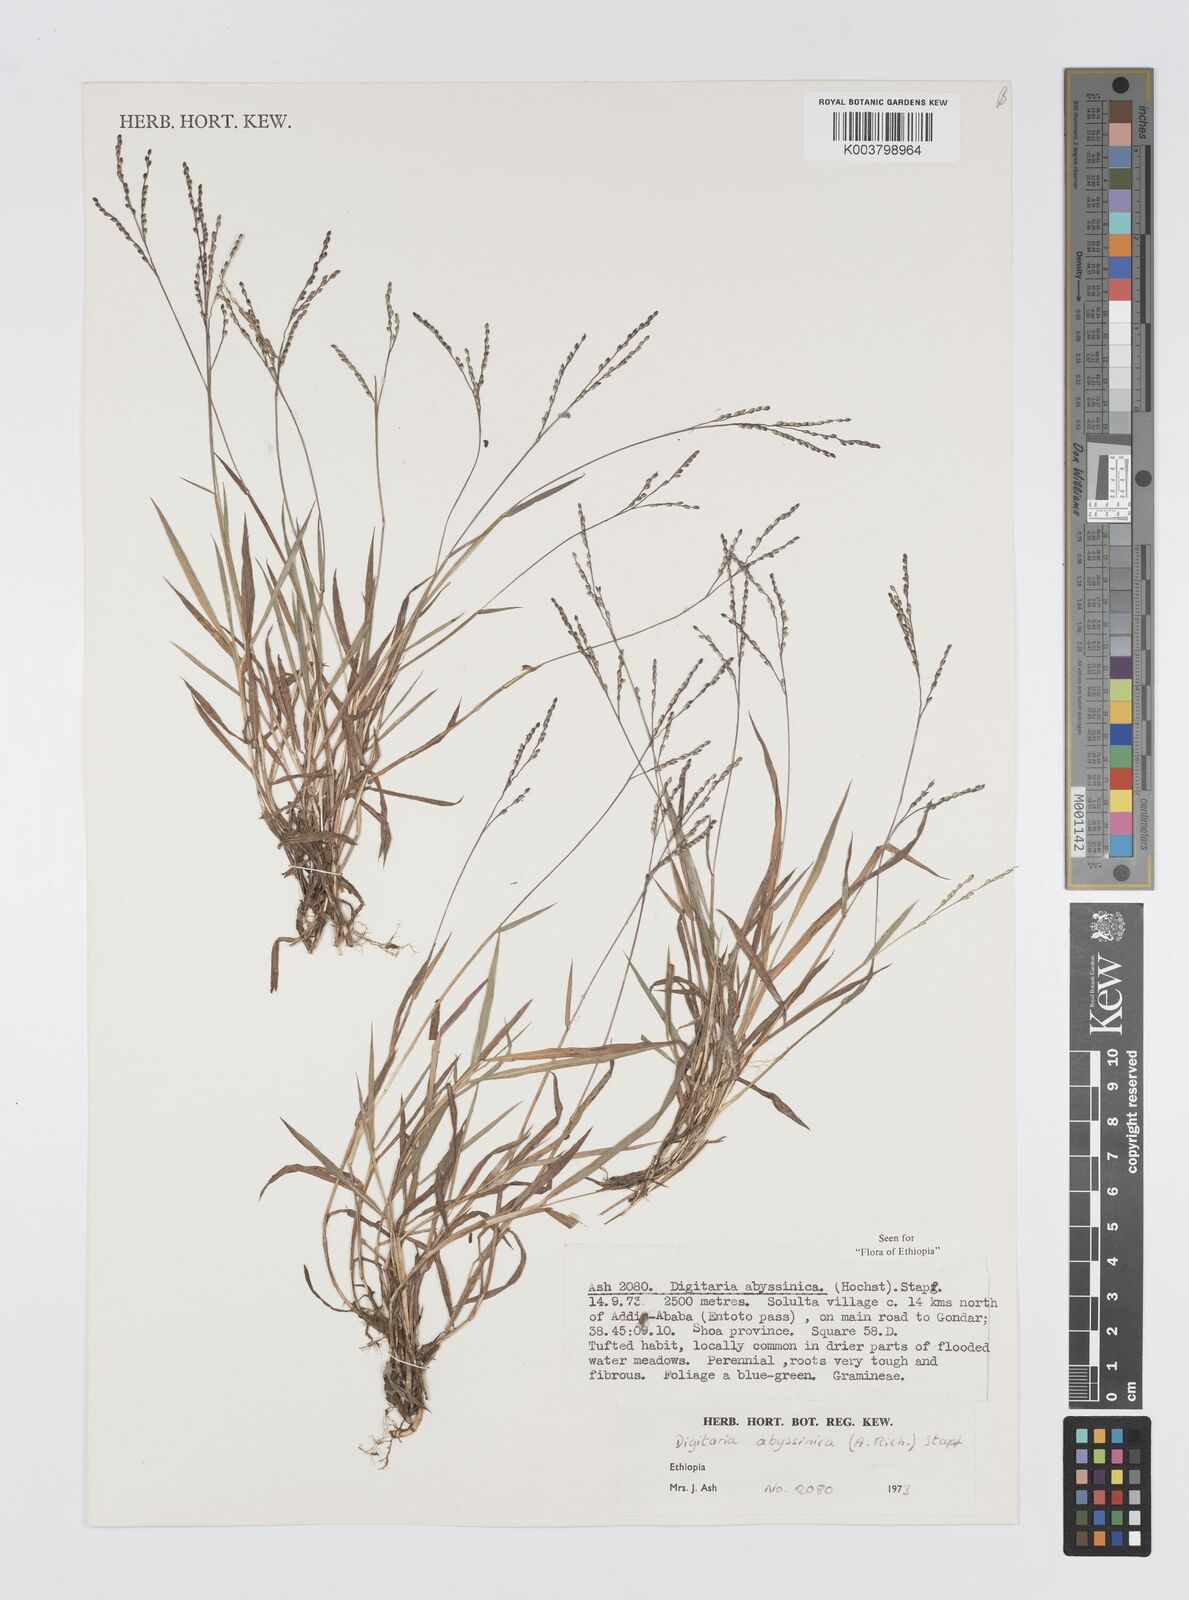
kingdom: Plantae
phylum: Tracheophyta
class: Liliopsida
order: Poales
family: Poaceae
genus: Digitaria
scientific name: Digitaria abyssinica
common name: African couchgrass
